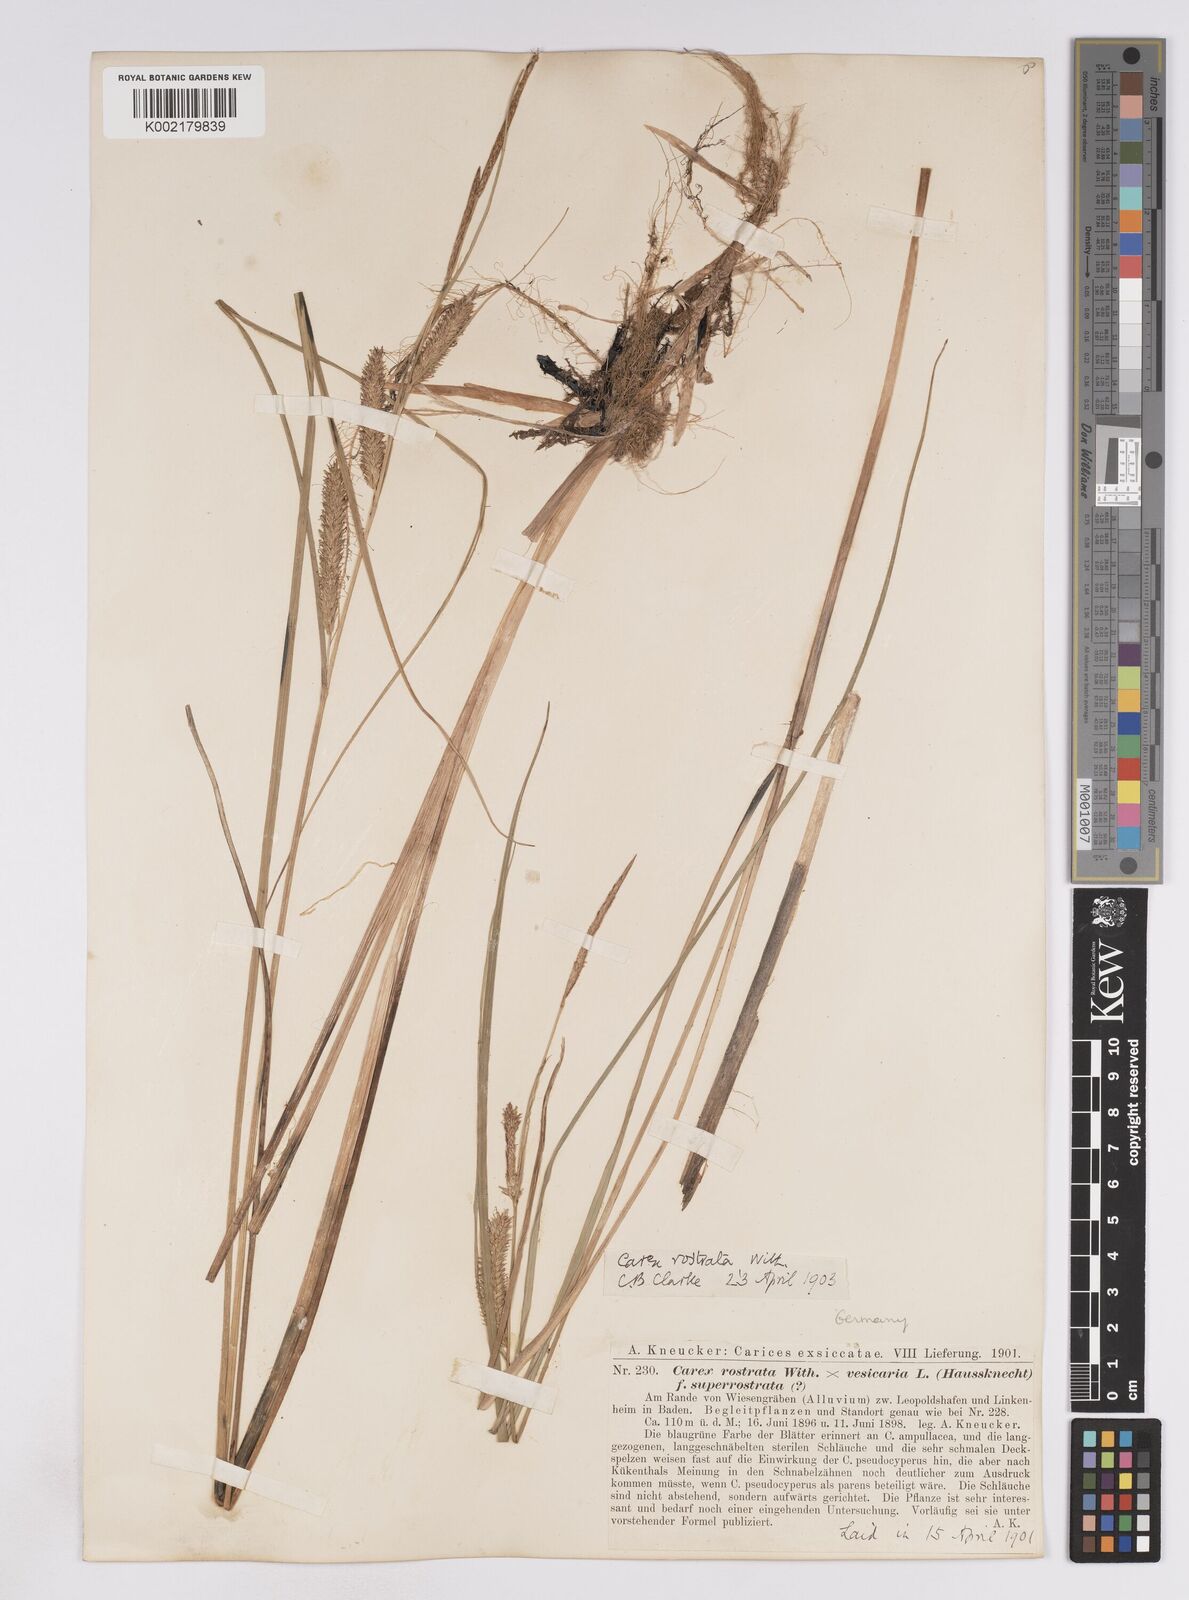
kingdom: Plantae
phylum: Tracheophyta
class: Liliopsida
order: Poales
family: Cyperaceae
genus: Carex
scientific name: Carex rostrata
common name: Bottle sedge
